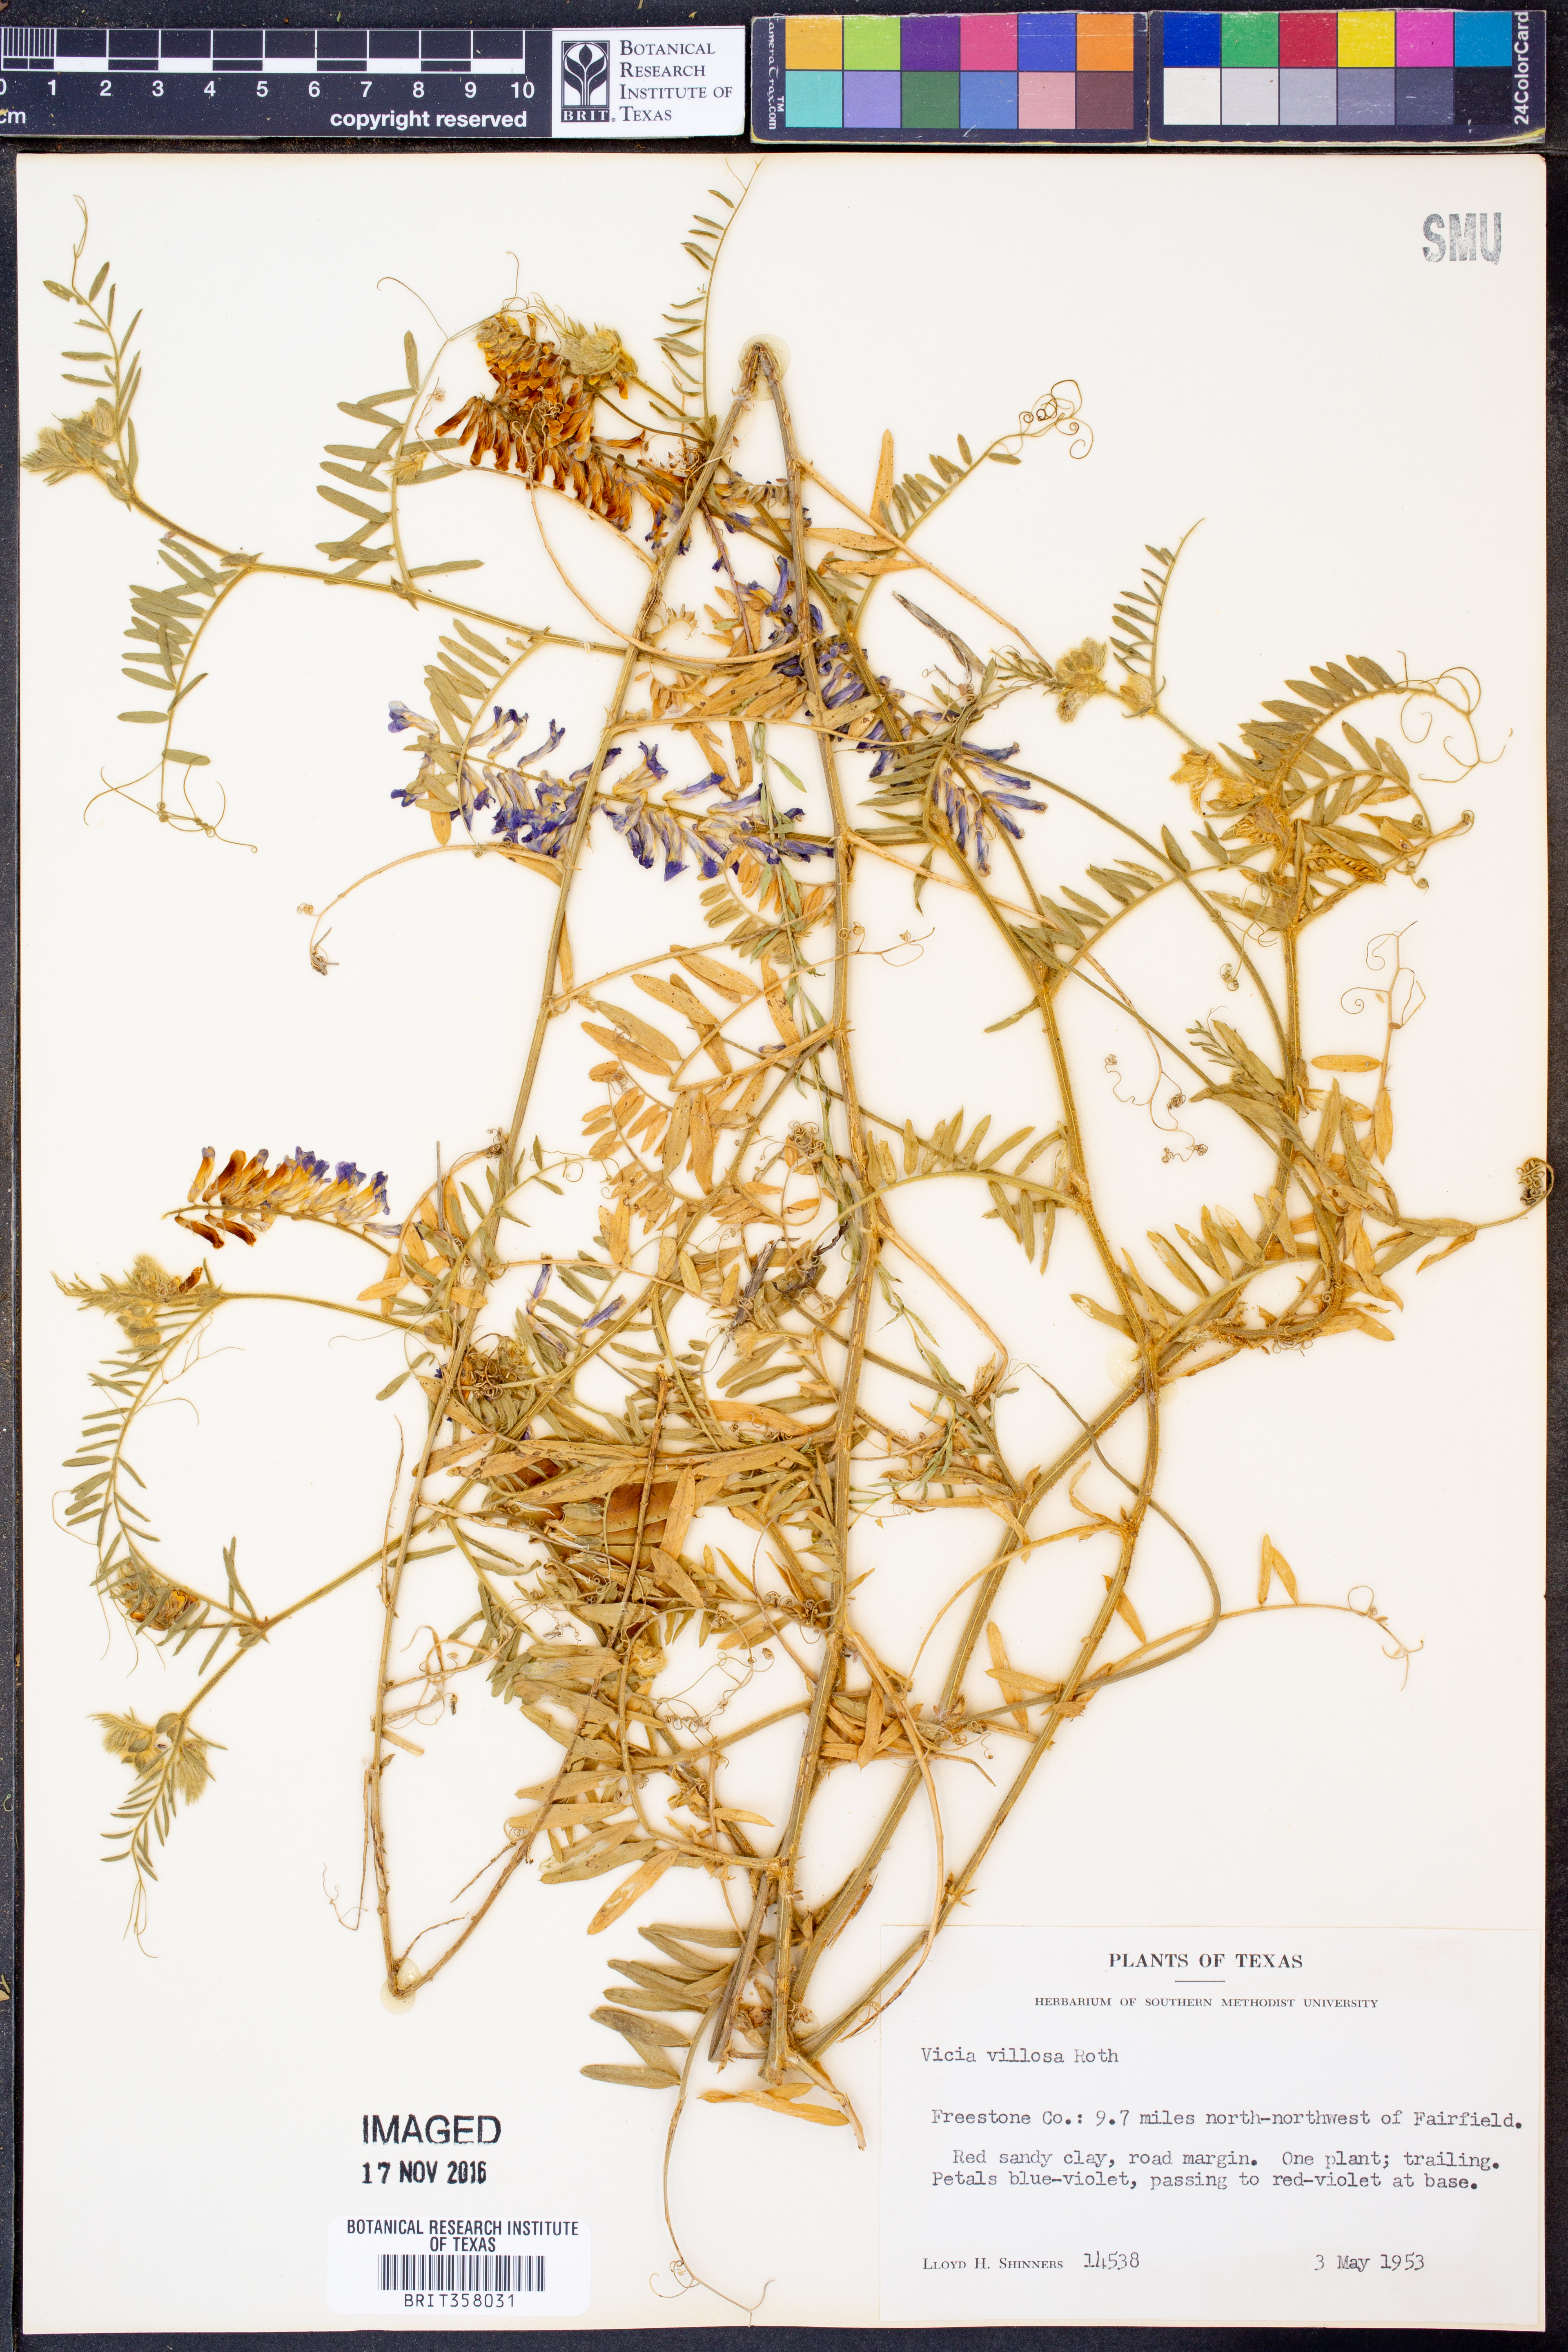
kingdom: Plantae
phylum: Tracheophyta
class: Magnoliopsida
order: Fabales
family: Fabaceae
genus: Vicia
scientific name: Vicia villosa
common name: Fodder vetch
